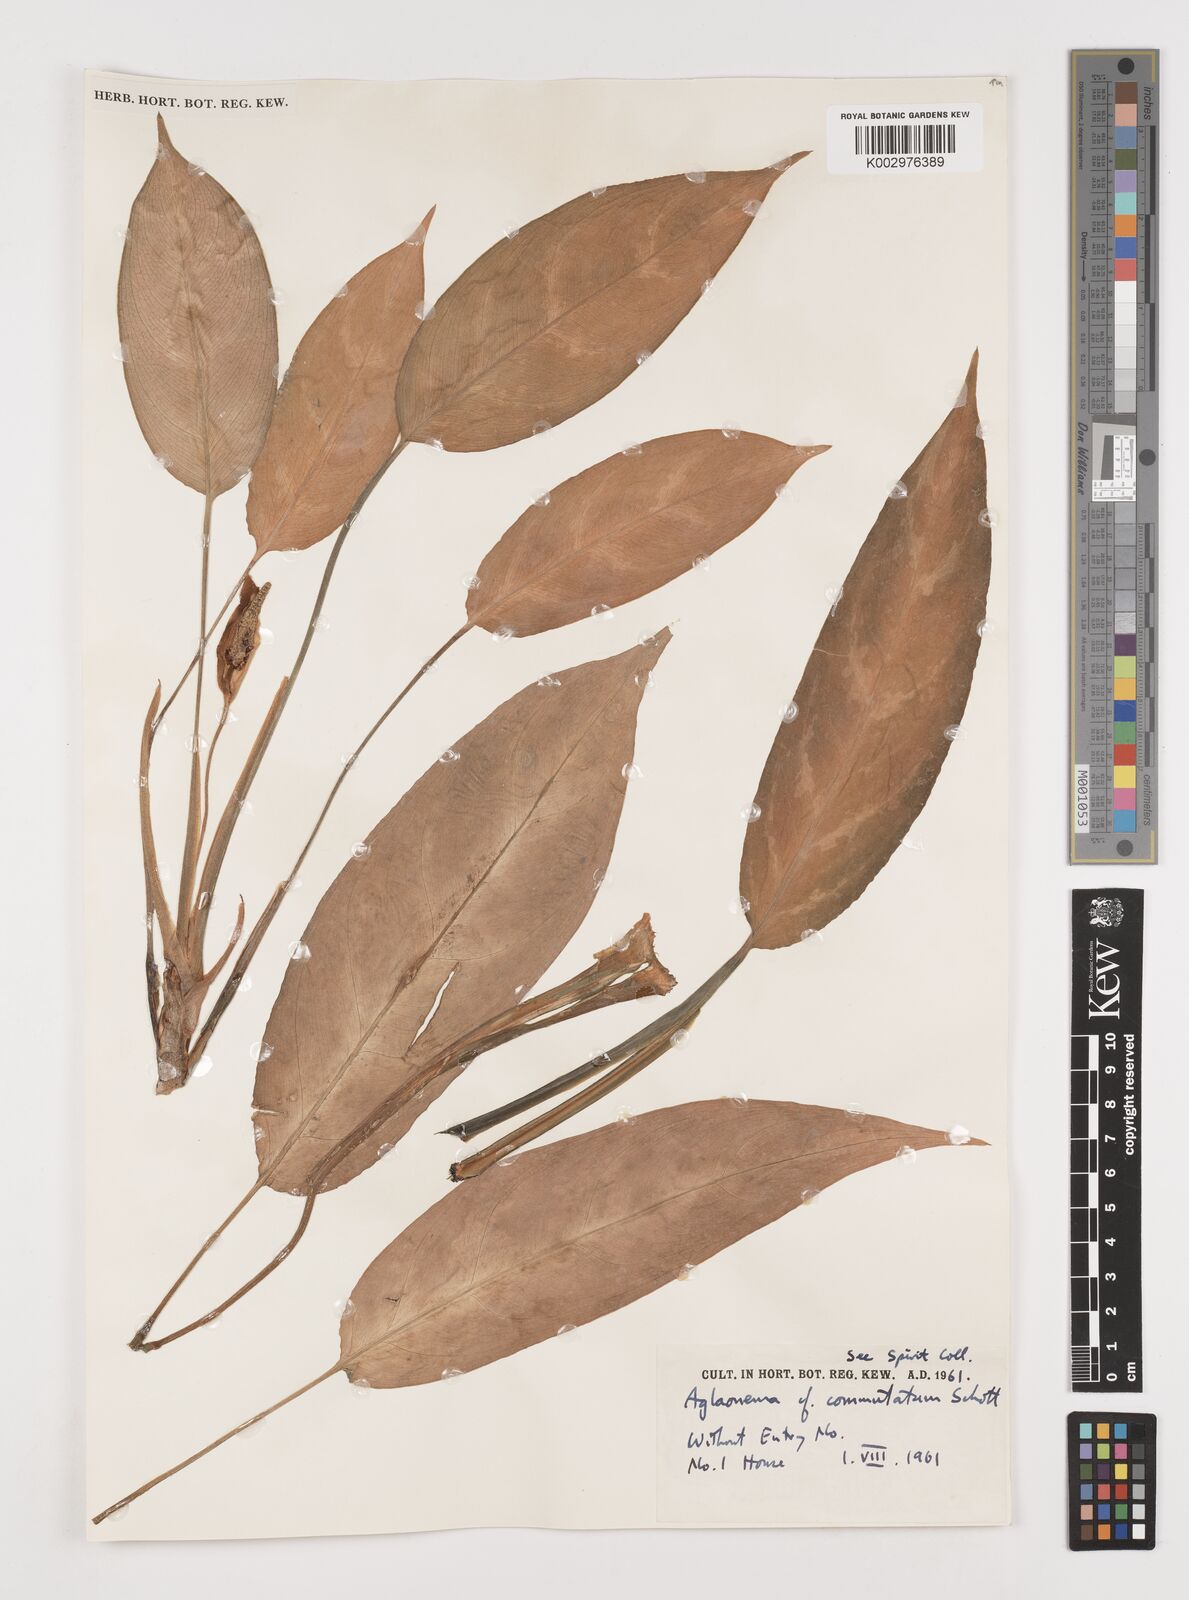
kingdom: Plantae
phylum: Tracheophyta
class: Liliopsida
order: Alismatales
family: Araceae
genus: Aglaonema
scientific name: Aglaonema commutatum
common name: Philippine evergreen
